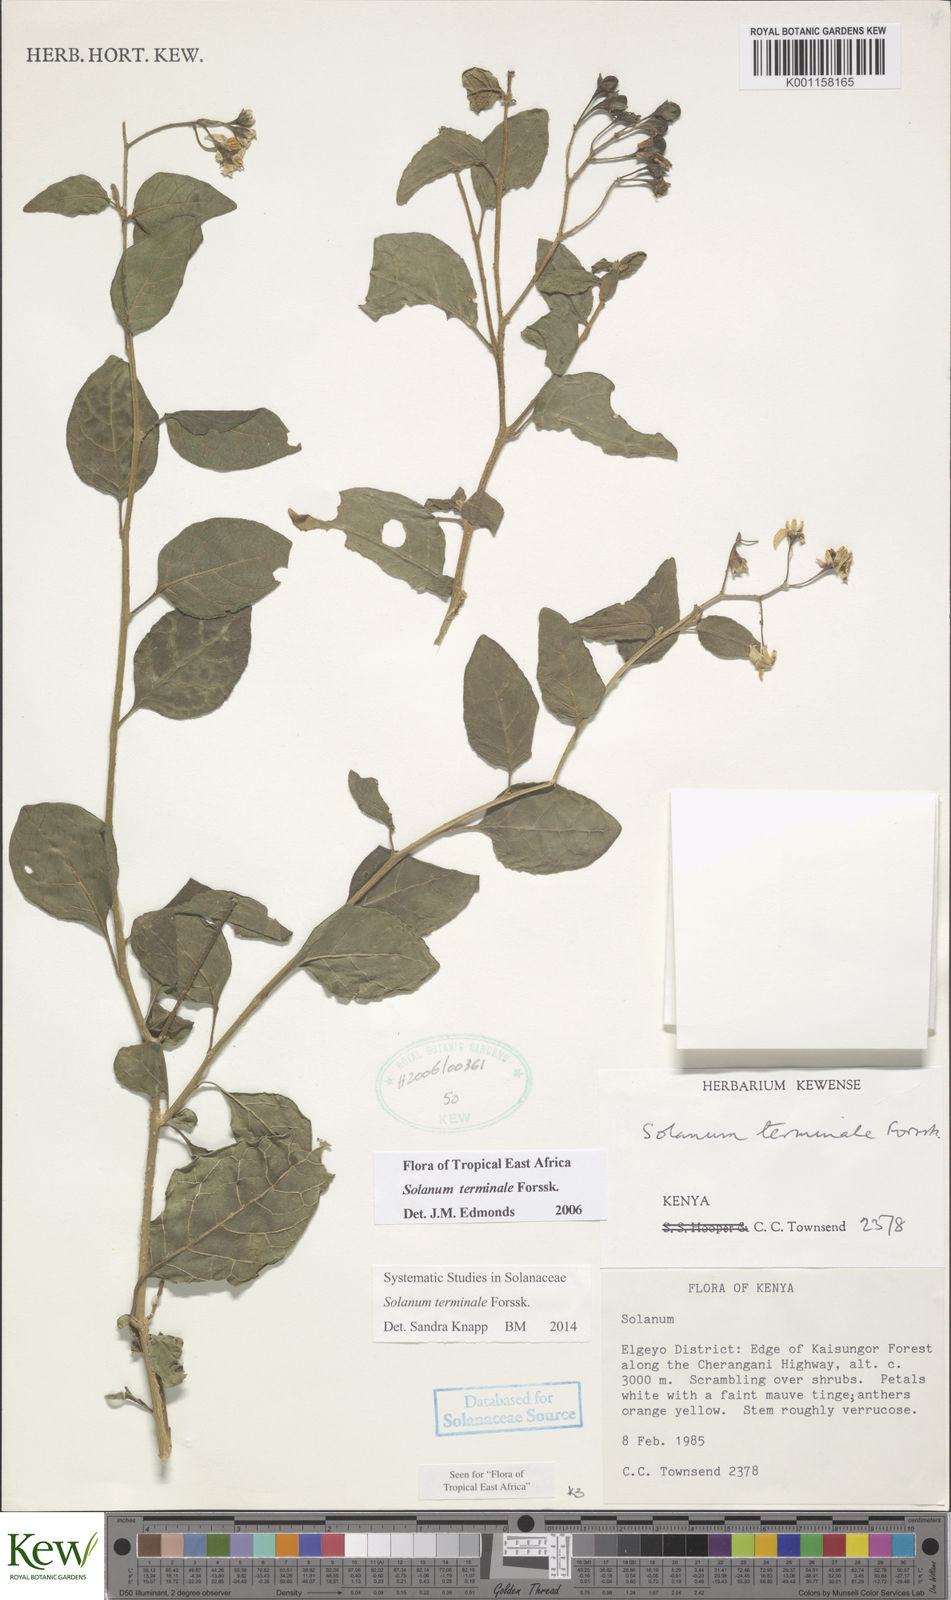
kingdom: Plantae
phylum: Tracheophyta
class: Magnoliopsida
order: Solanales
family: Solanaceae
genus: Solanum
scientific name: Solanum terminale
